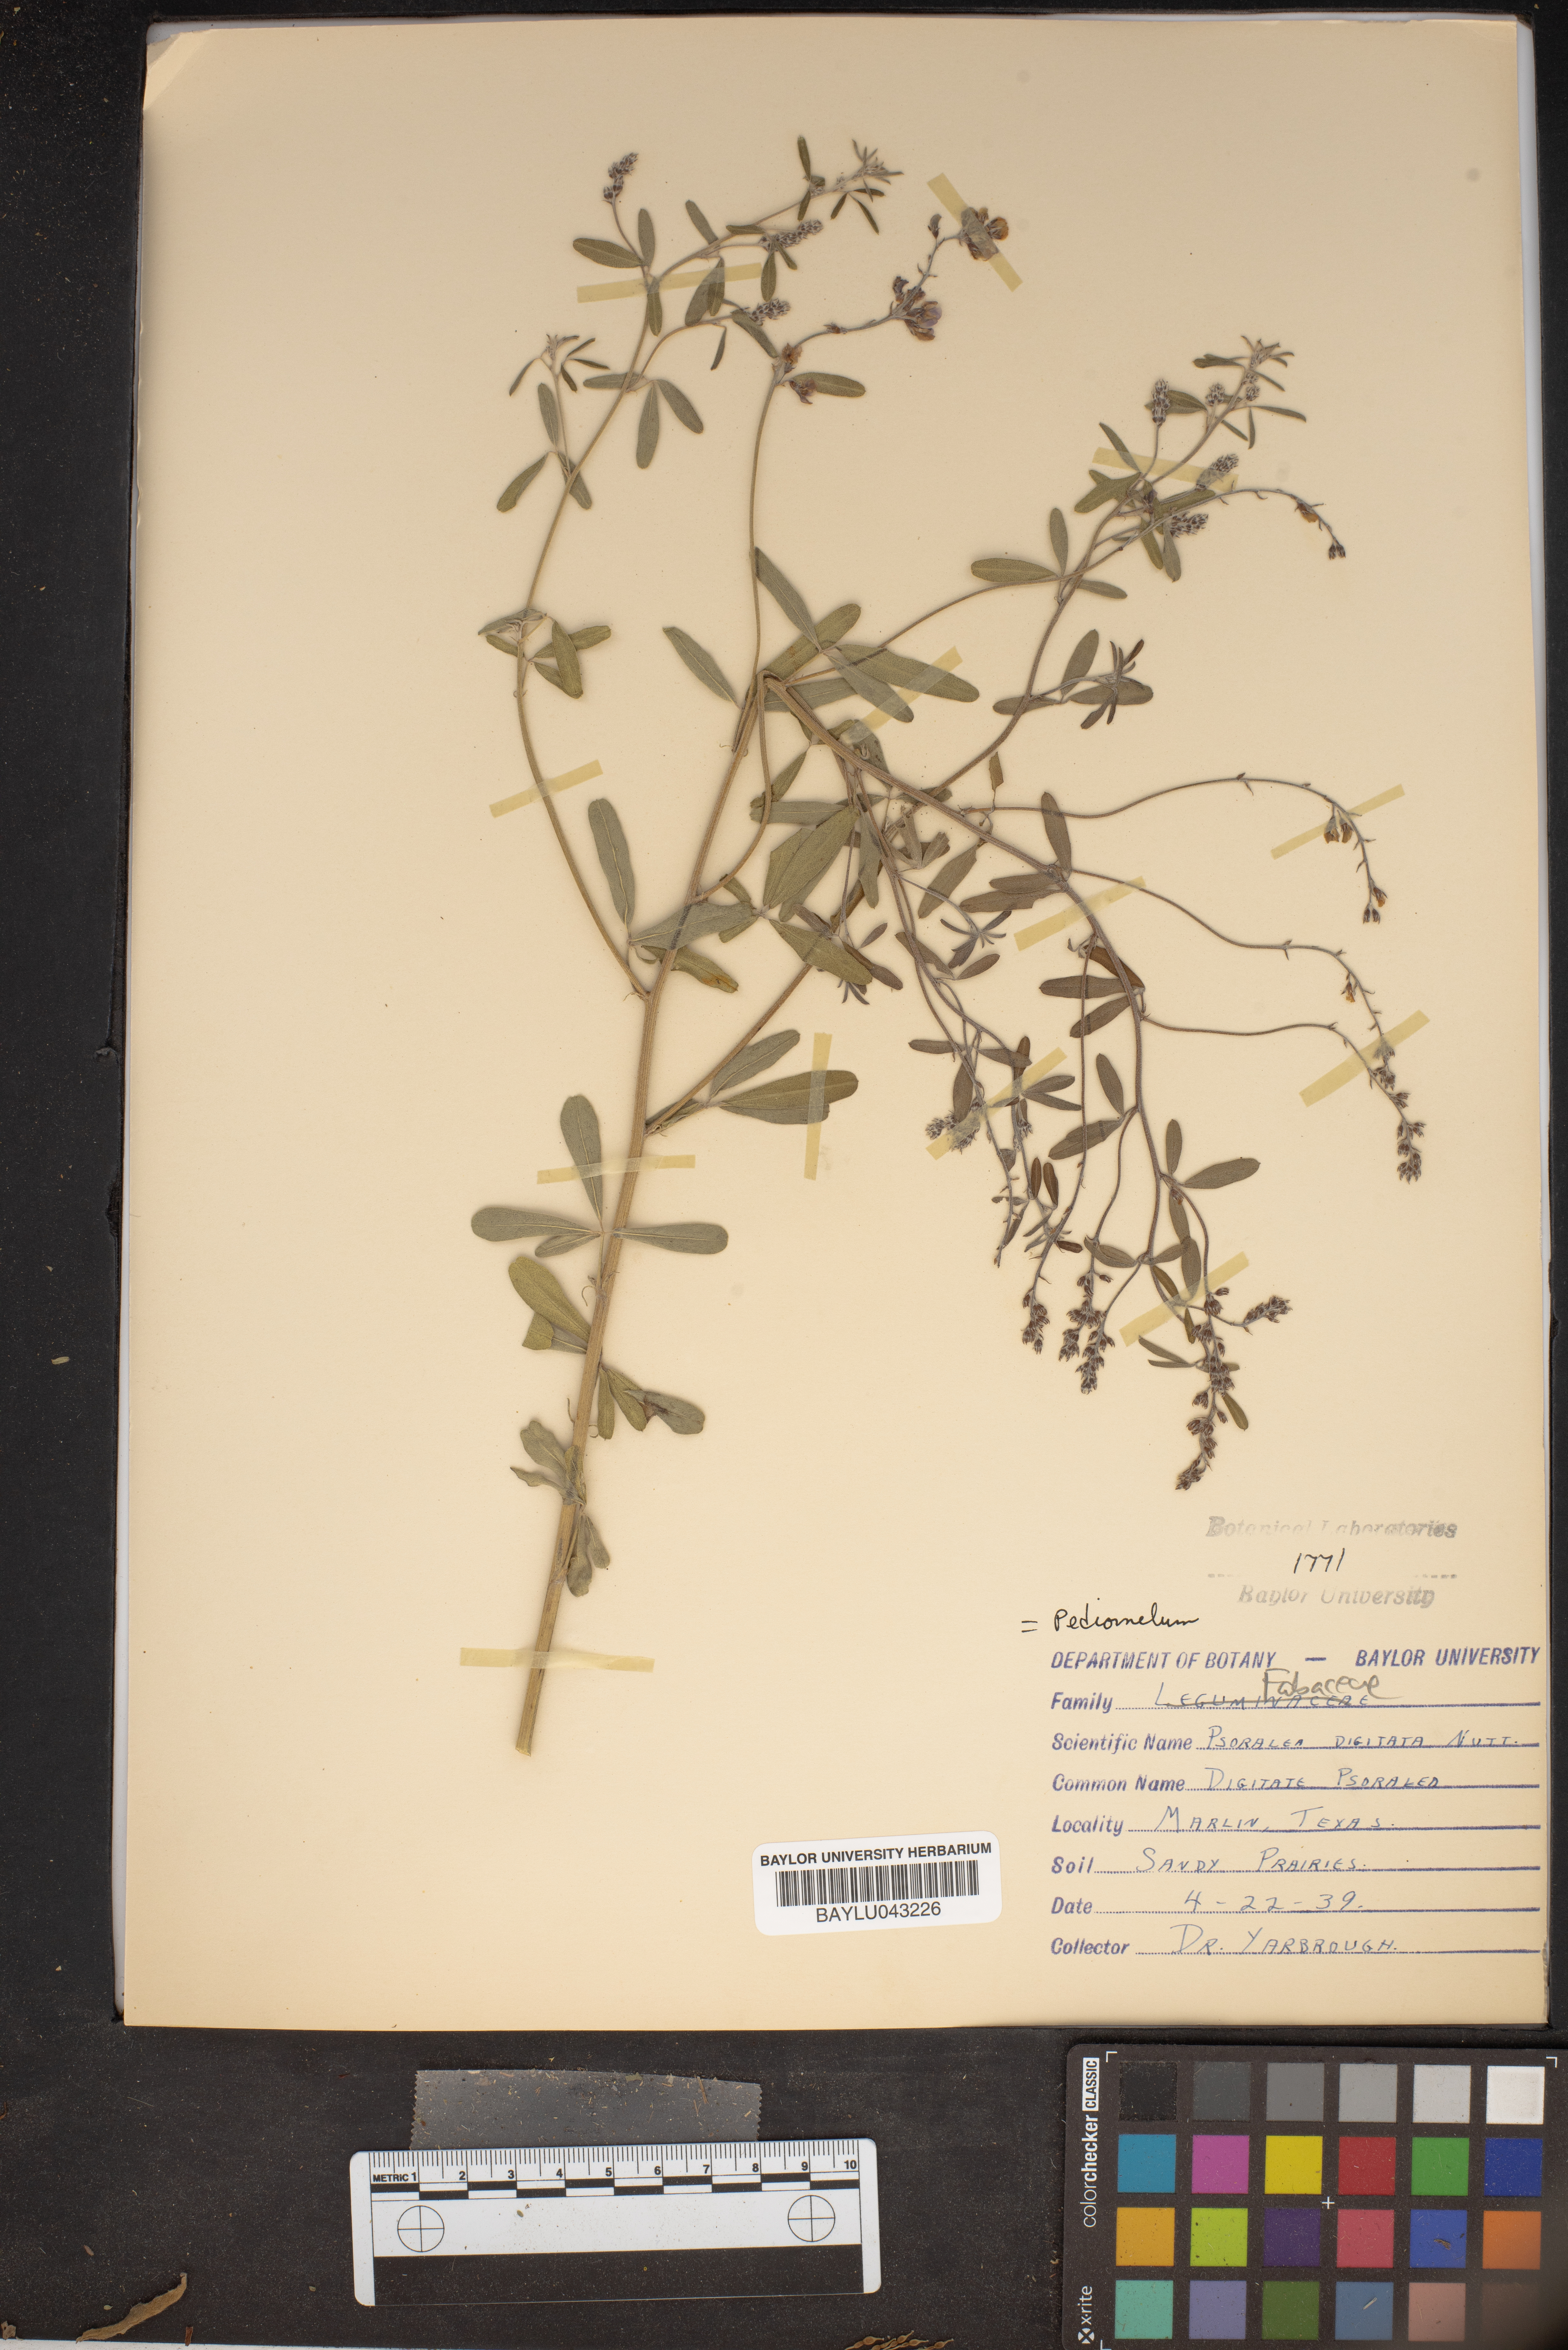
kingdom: Plantae
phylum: Tracheophyta
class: Magnoliopsida
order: Fabales
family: Fabaceae
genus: Pediomelum
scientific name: Pediomelum digitatum
